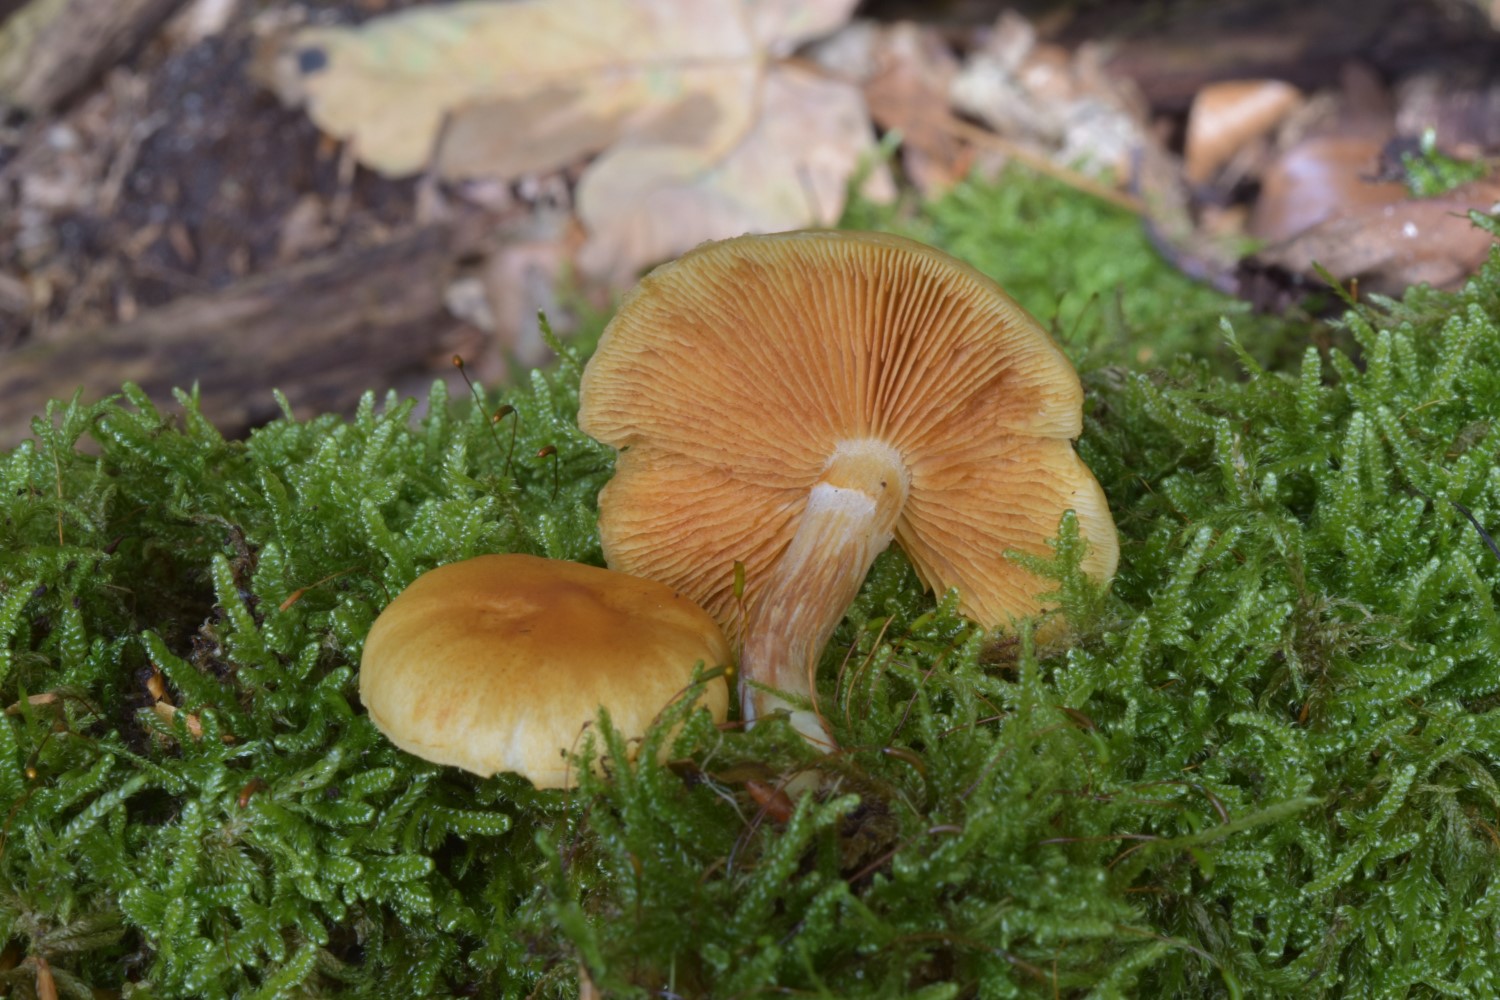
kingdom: Fungi
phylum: Basidiomycota
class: Agaricomycetes
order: Agaricales
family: Hymenogastraceae
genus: Gymnopilus
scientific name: Gymnopilus penetrans
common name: plettet flammehat
